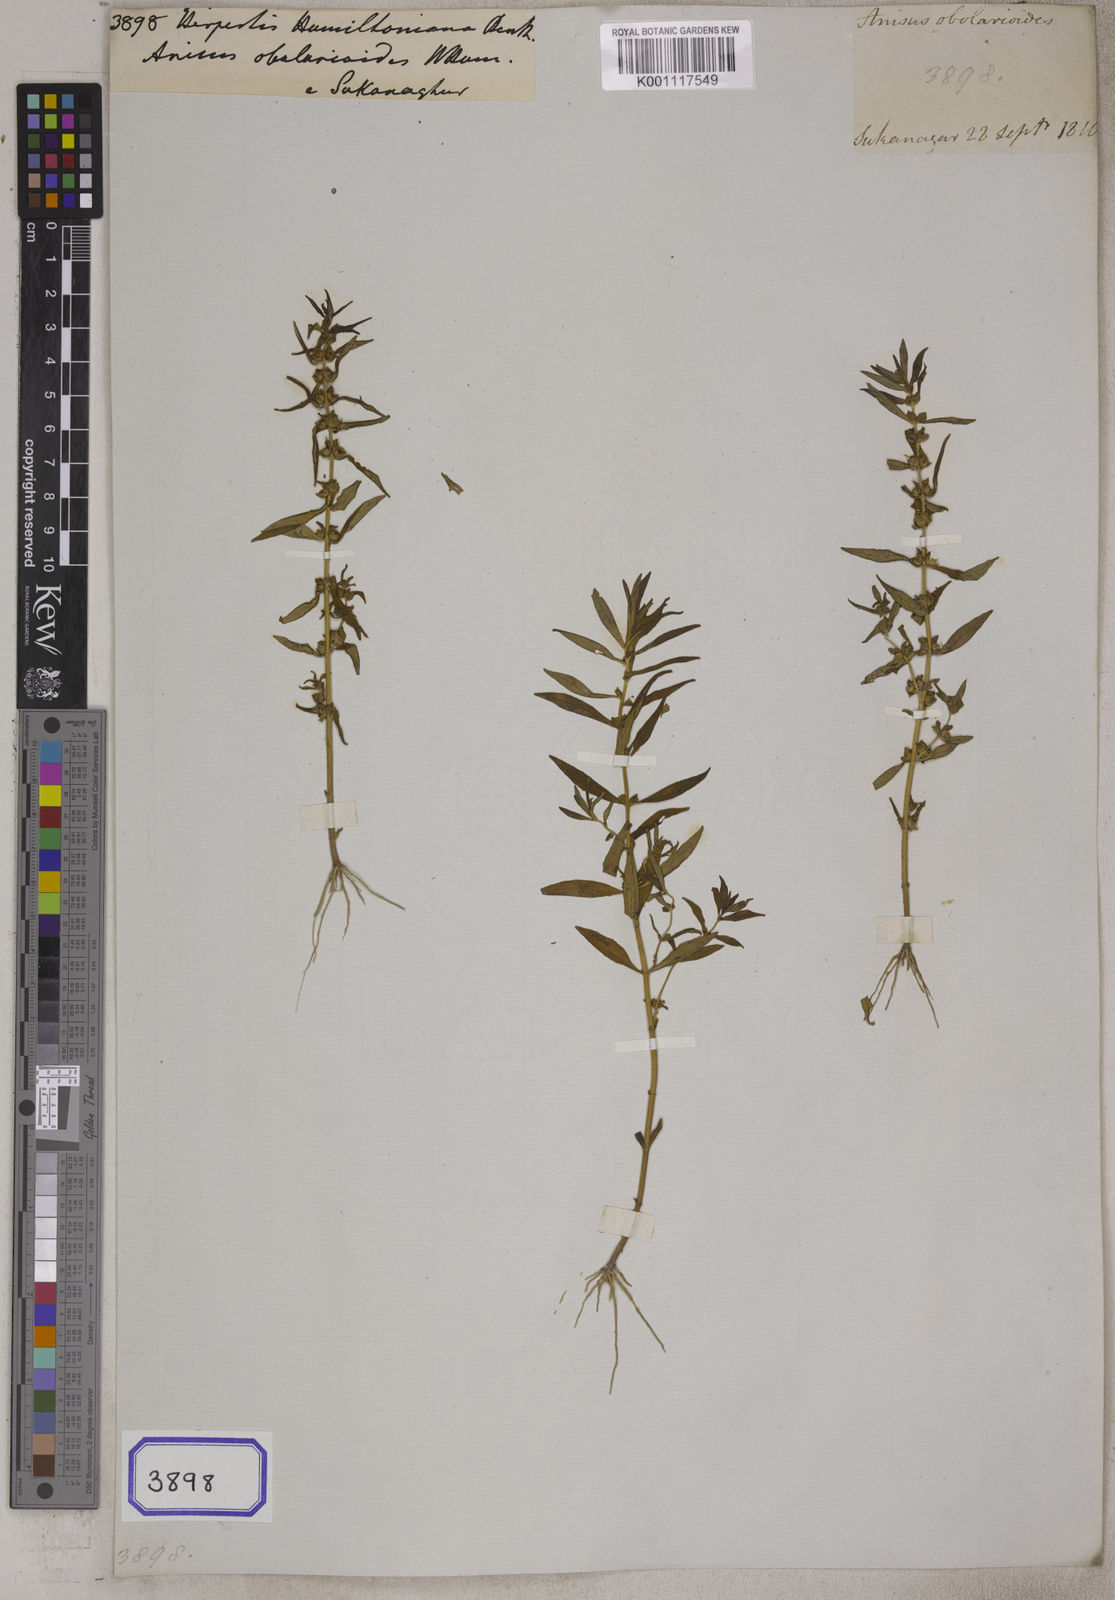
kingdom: Plantae
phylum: Tracheophyta
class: Magnoliopsida
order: Lamiales
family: Plantaginaceae
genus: Bacopa
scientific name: Bacopa hamiltoniana
